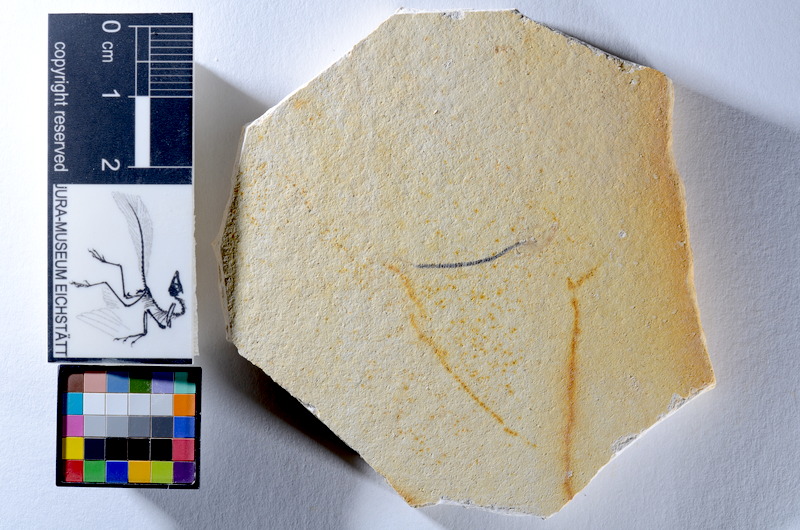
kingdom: Animalia
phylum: Chordata
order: Salmoniformes
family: Orthogonikleithridae
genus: Orthogonikleithrus
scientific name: Orthogonikleithrus hoelli
